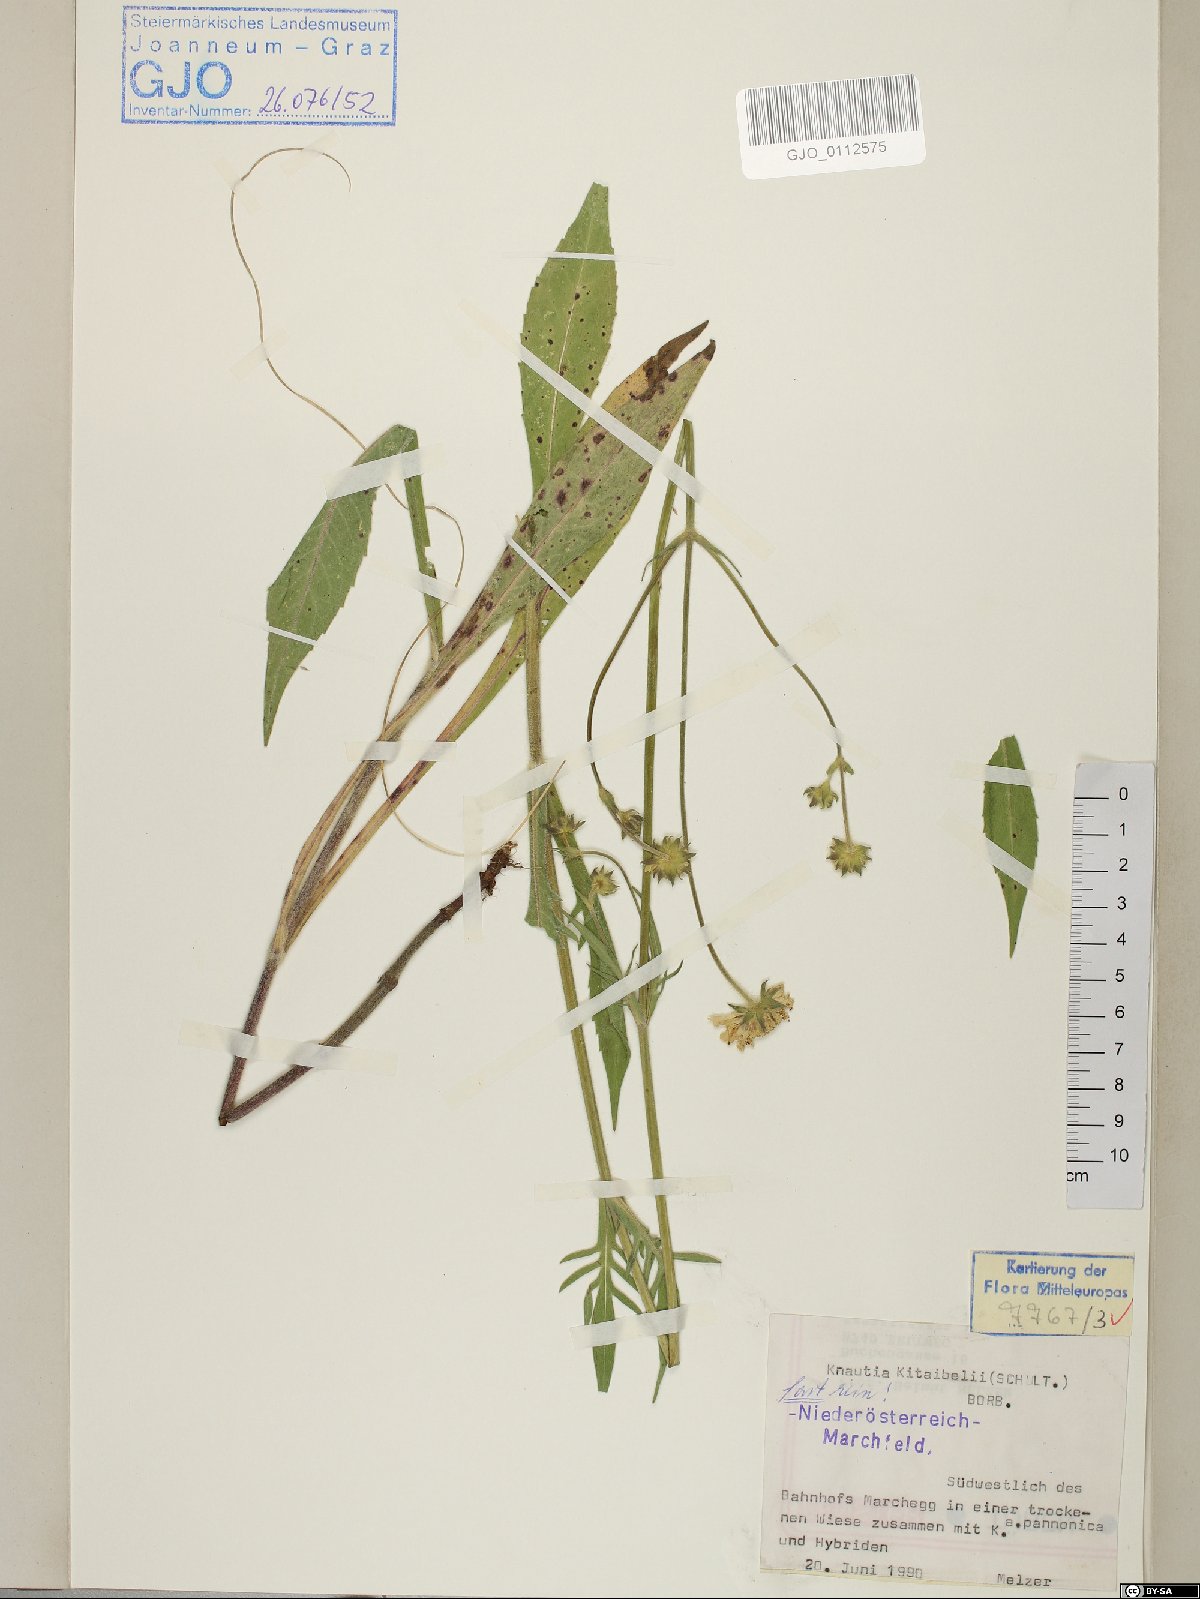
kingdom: Plantae
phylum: Tracheophyta
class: Magnoliopsida
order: Dipsacales
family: Caprifoliaceae
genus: Knautia
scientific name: Knautia kitaibelii
